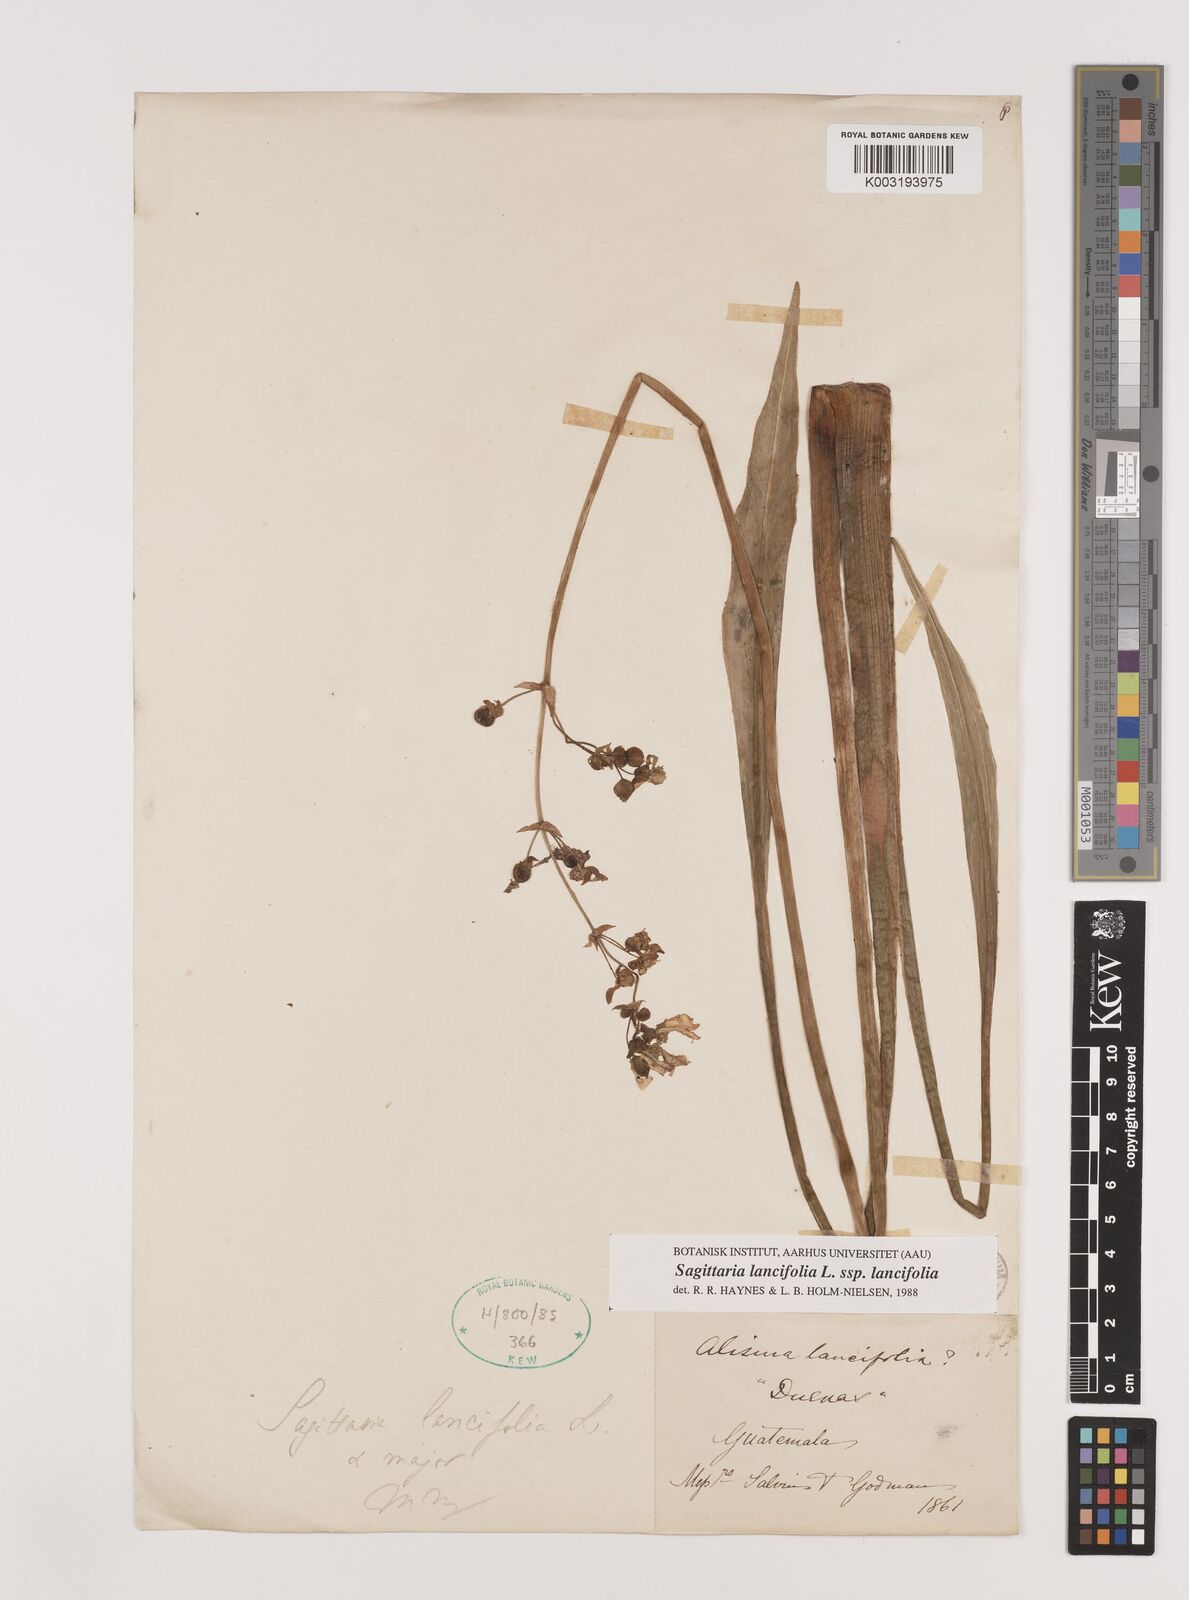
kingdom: Plantae
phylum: Tracheophyta
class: Liliopsida
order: Alismatales
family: Alismataceae
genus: Sagittaria
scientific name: Sagittaria lancifolia
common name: Lance-leaf arrowhead
